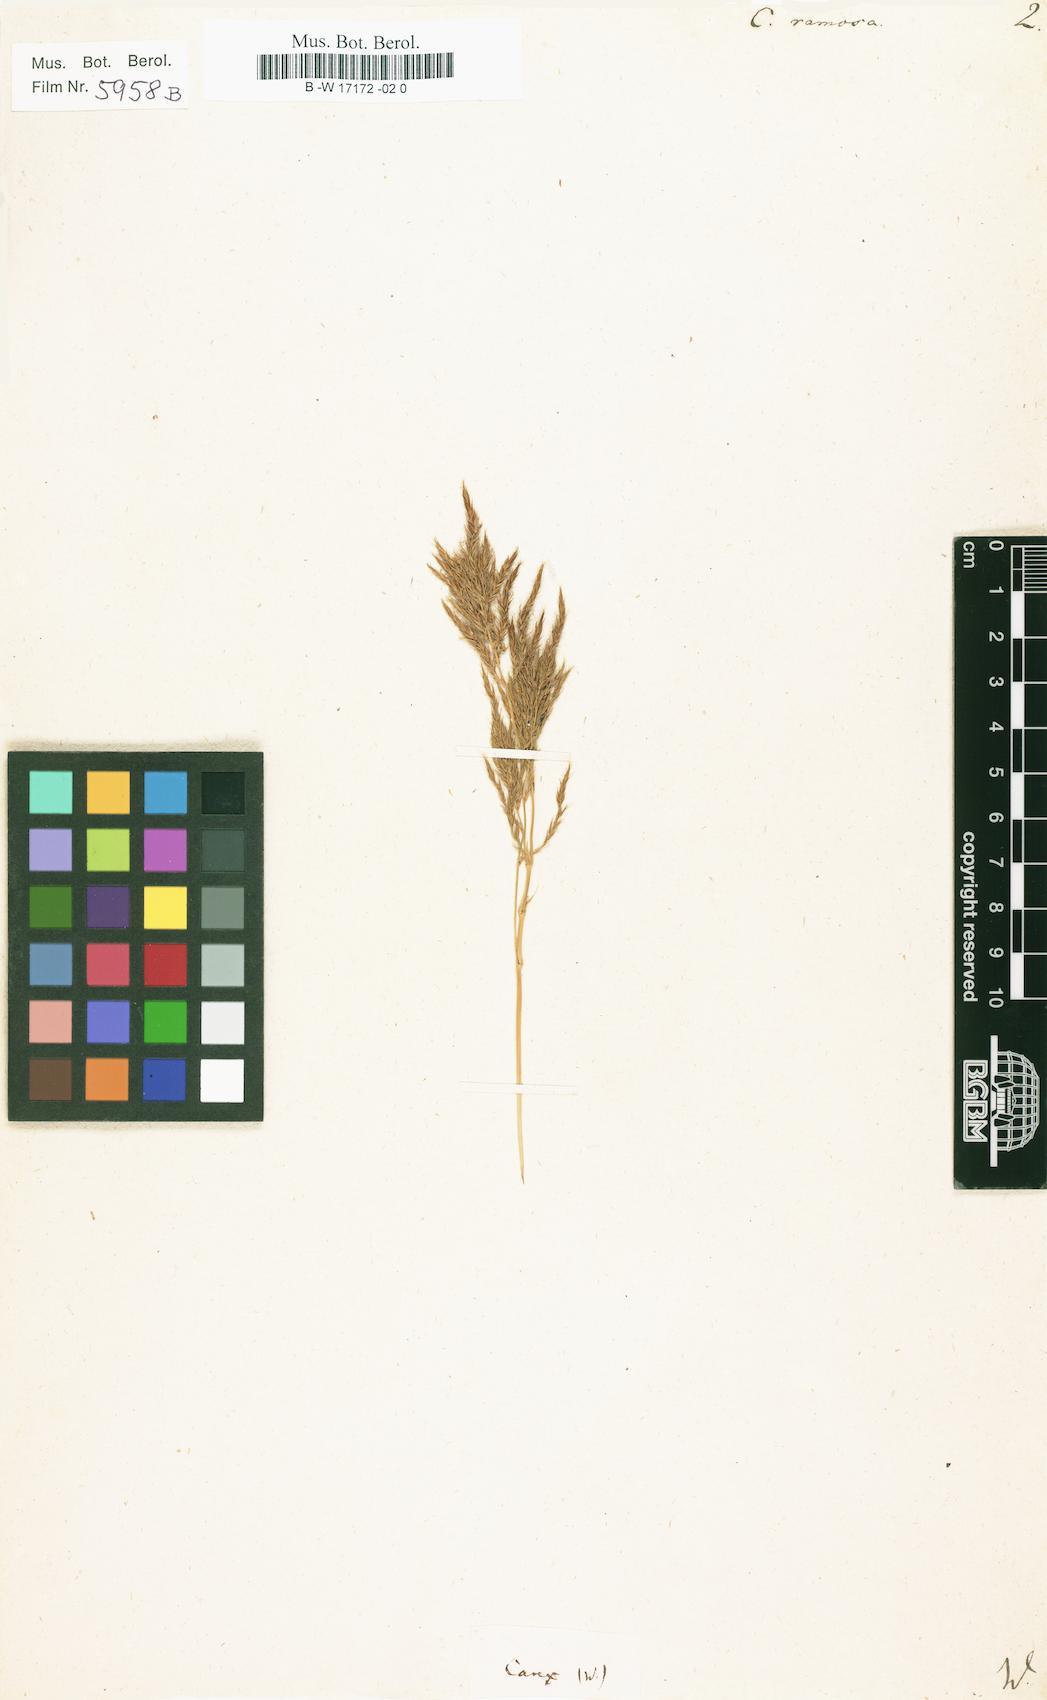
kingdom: Plantae
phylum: Tracheophyta
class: Liliopsida
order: Poales
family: Cyperaceae
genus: Carex
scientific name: Carex ramosa
